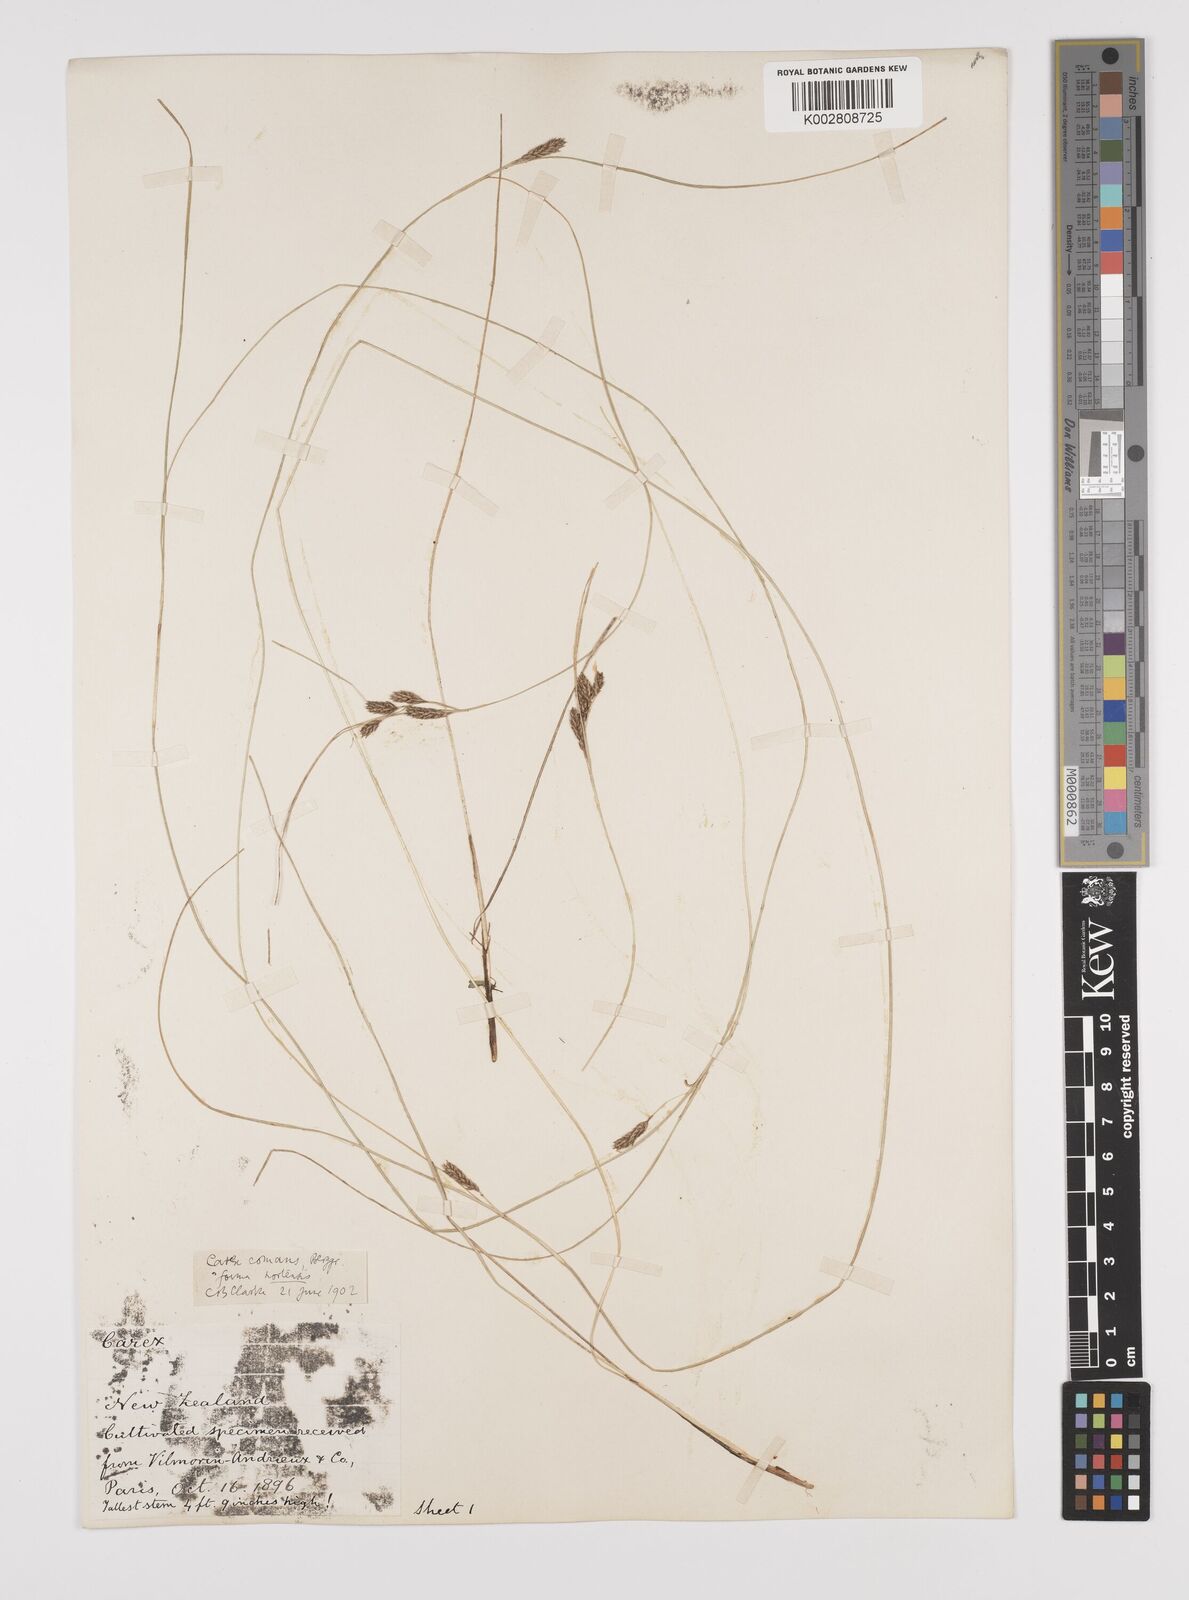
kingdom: Plantae
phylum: Tracheophyta
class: Liliopsida
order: Poales
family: Cyperaceae
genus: Carex
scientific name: Carex comans
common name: Longwood tussock
